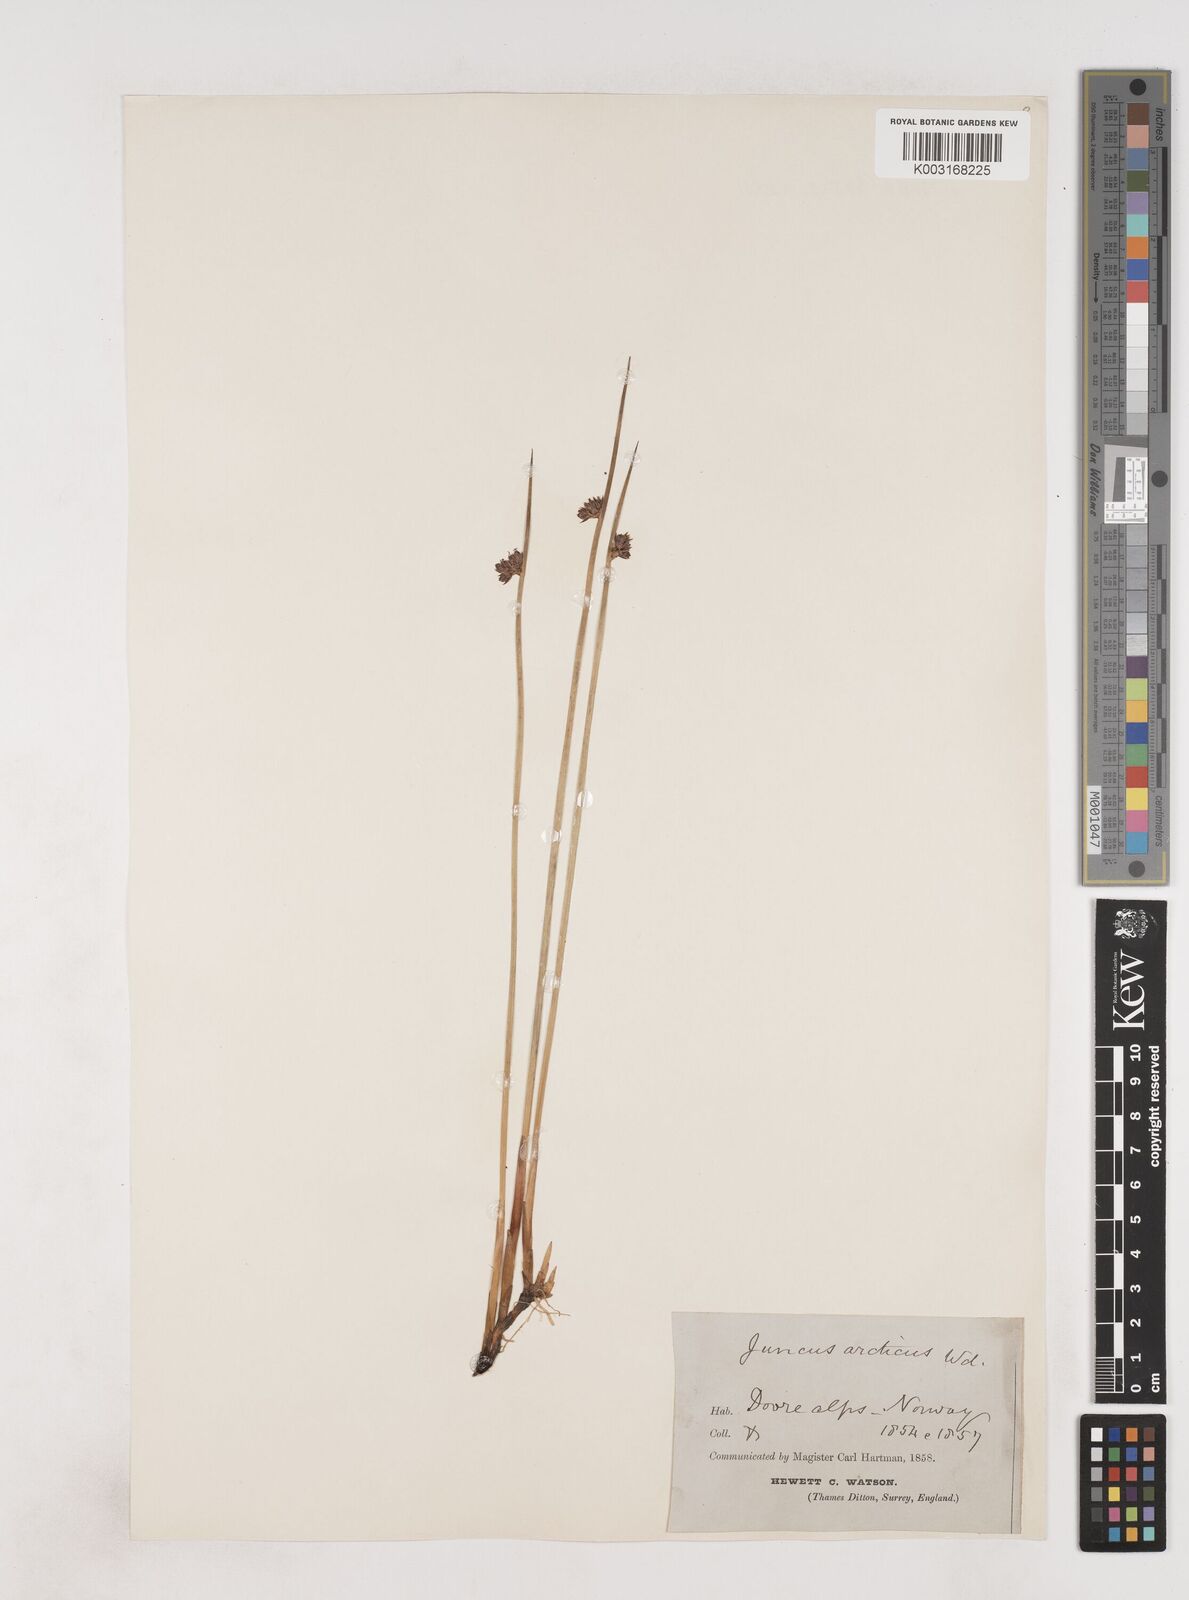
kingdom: Plantae
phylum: Tracheophyta
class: Liliopsida
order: Poales
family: Juncaceae
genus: Juncus
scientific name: Juncus arcticus
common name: Arctic rush
